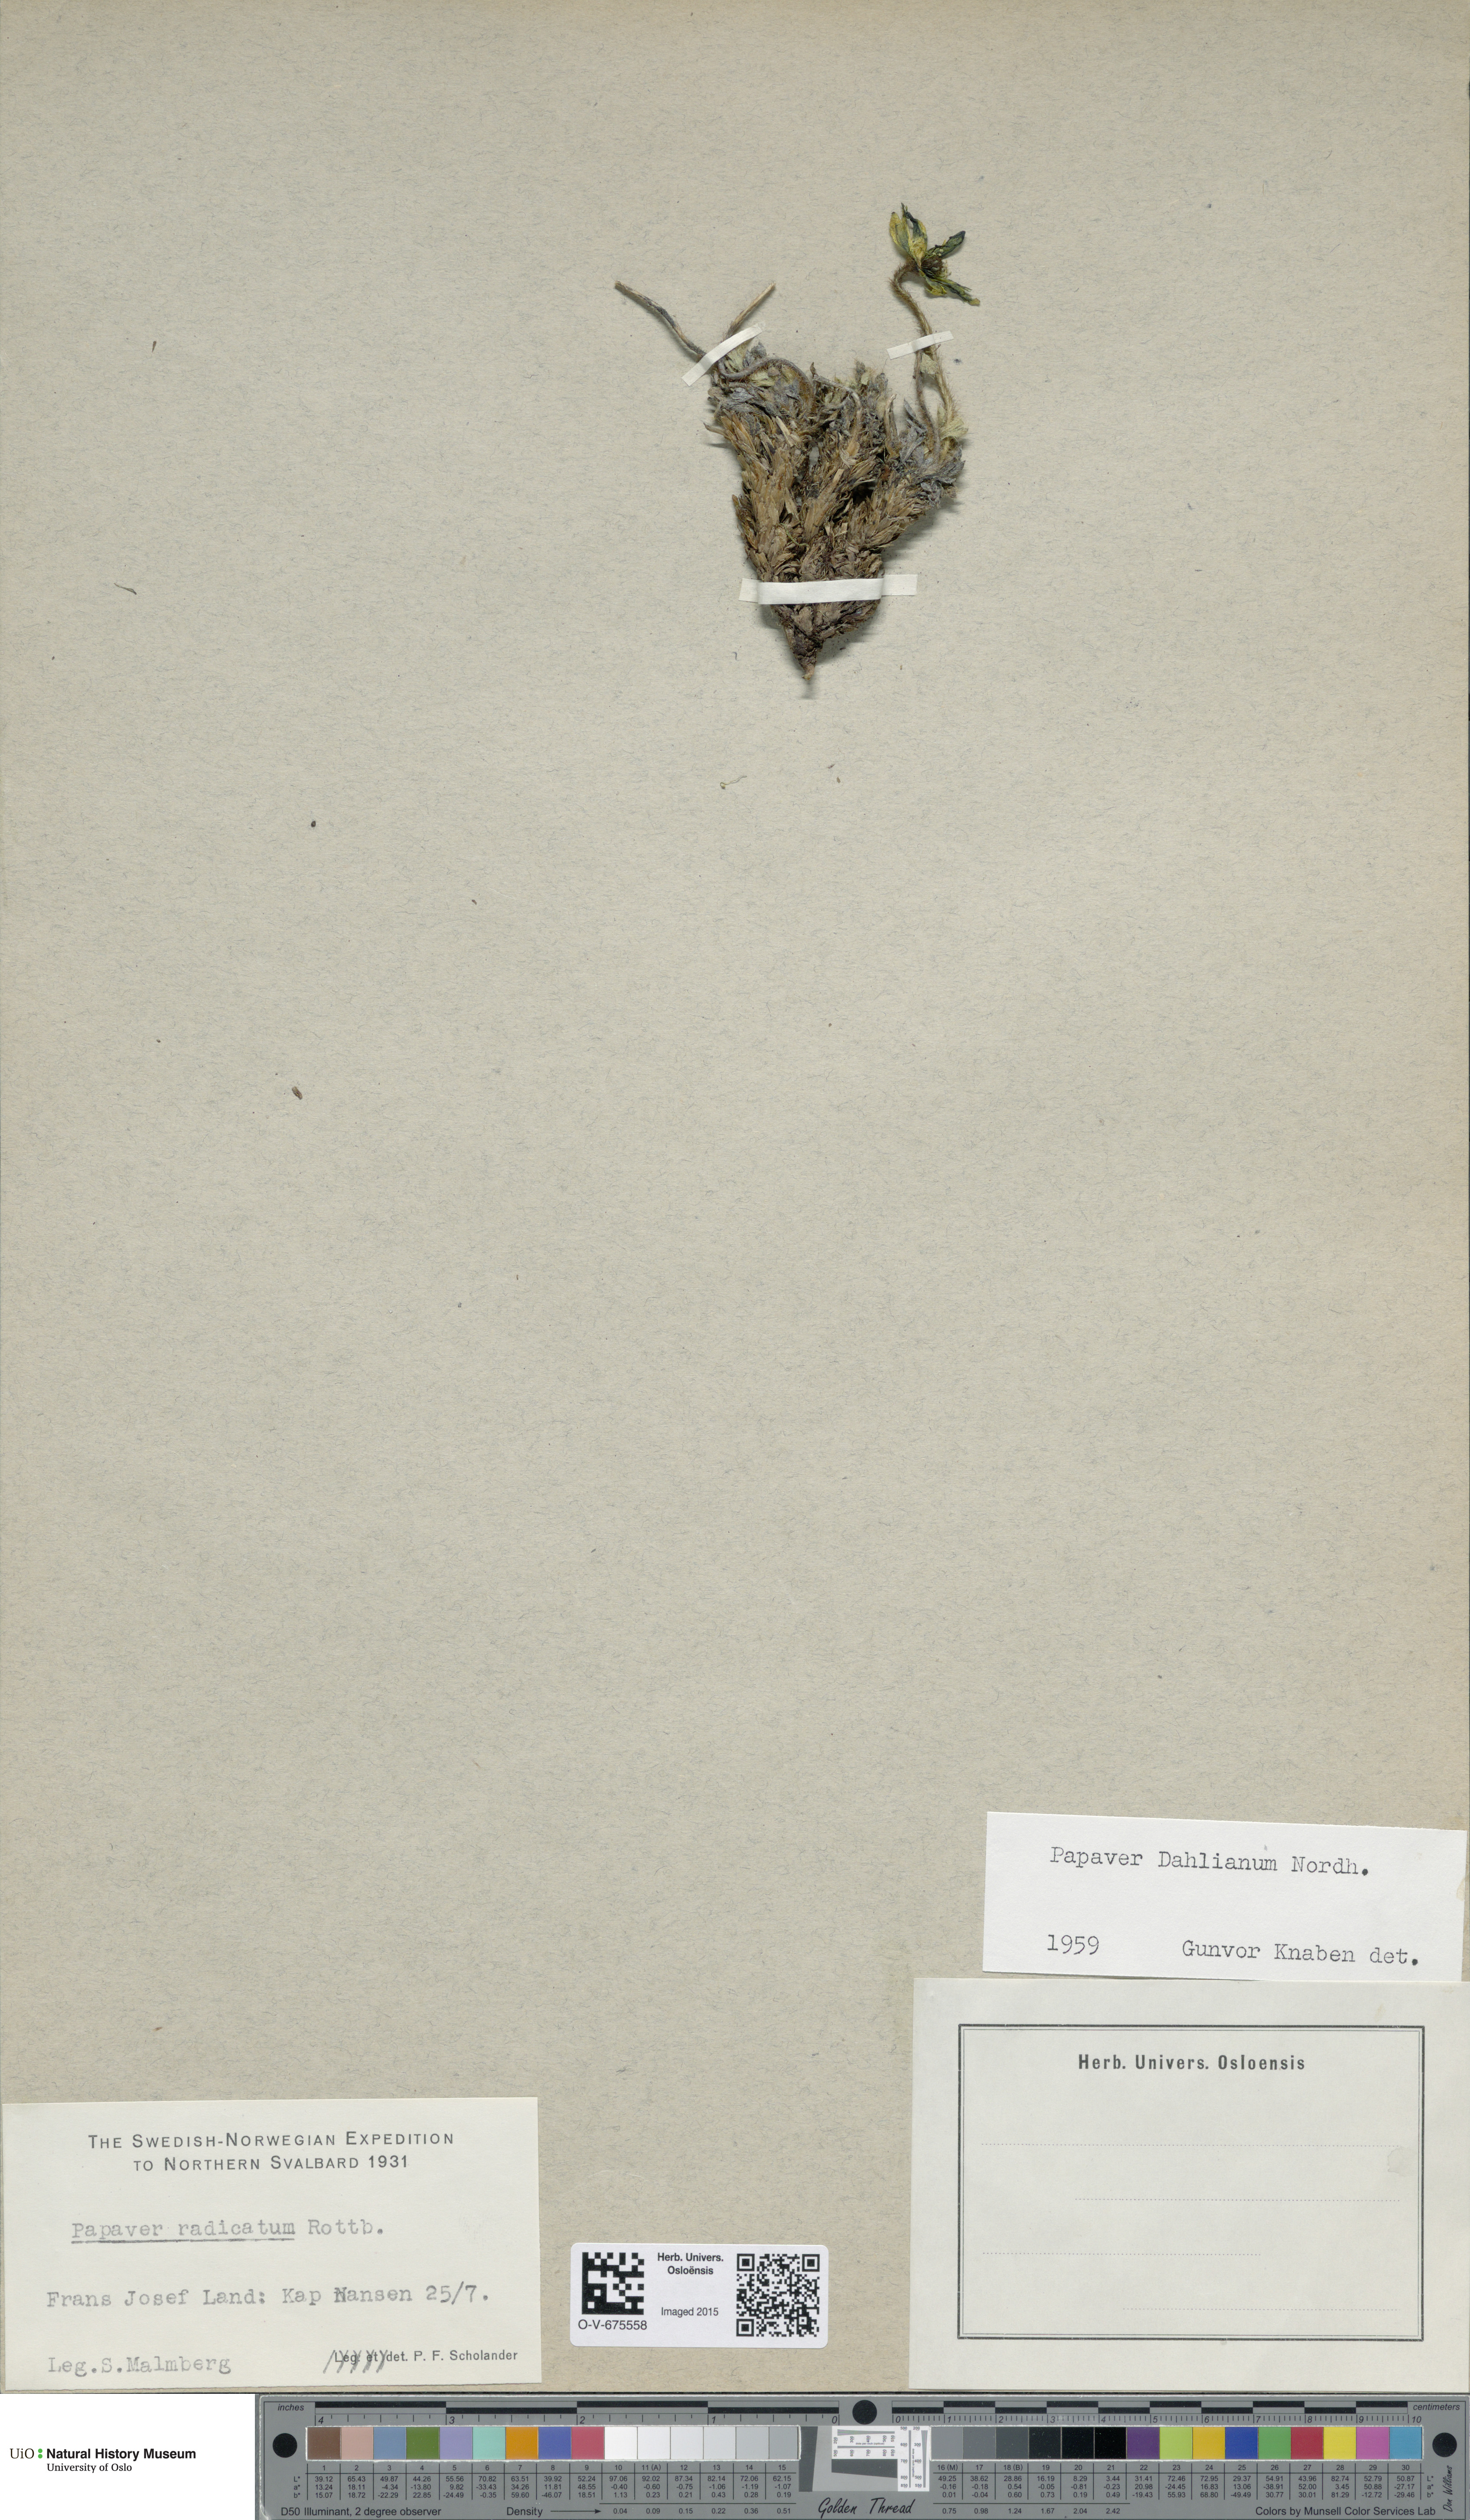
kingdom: Plantae
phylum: Tracheophyta
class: Magnoliopsida
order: Ranunculales
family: Papaveraceae
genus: Papaver
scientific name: Papaver radicatum
